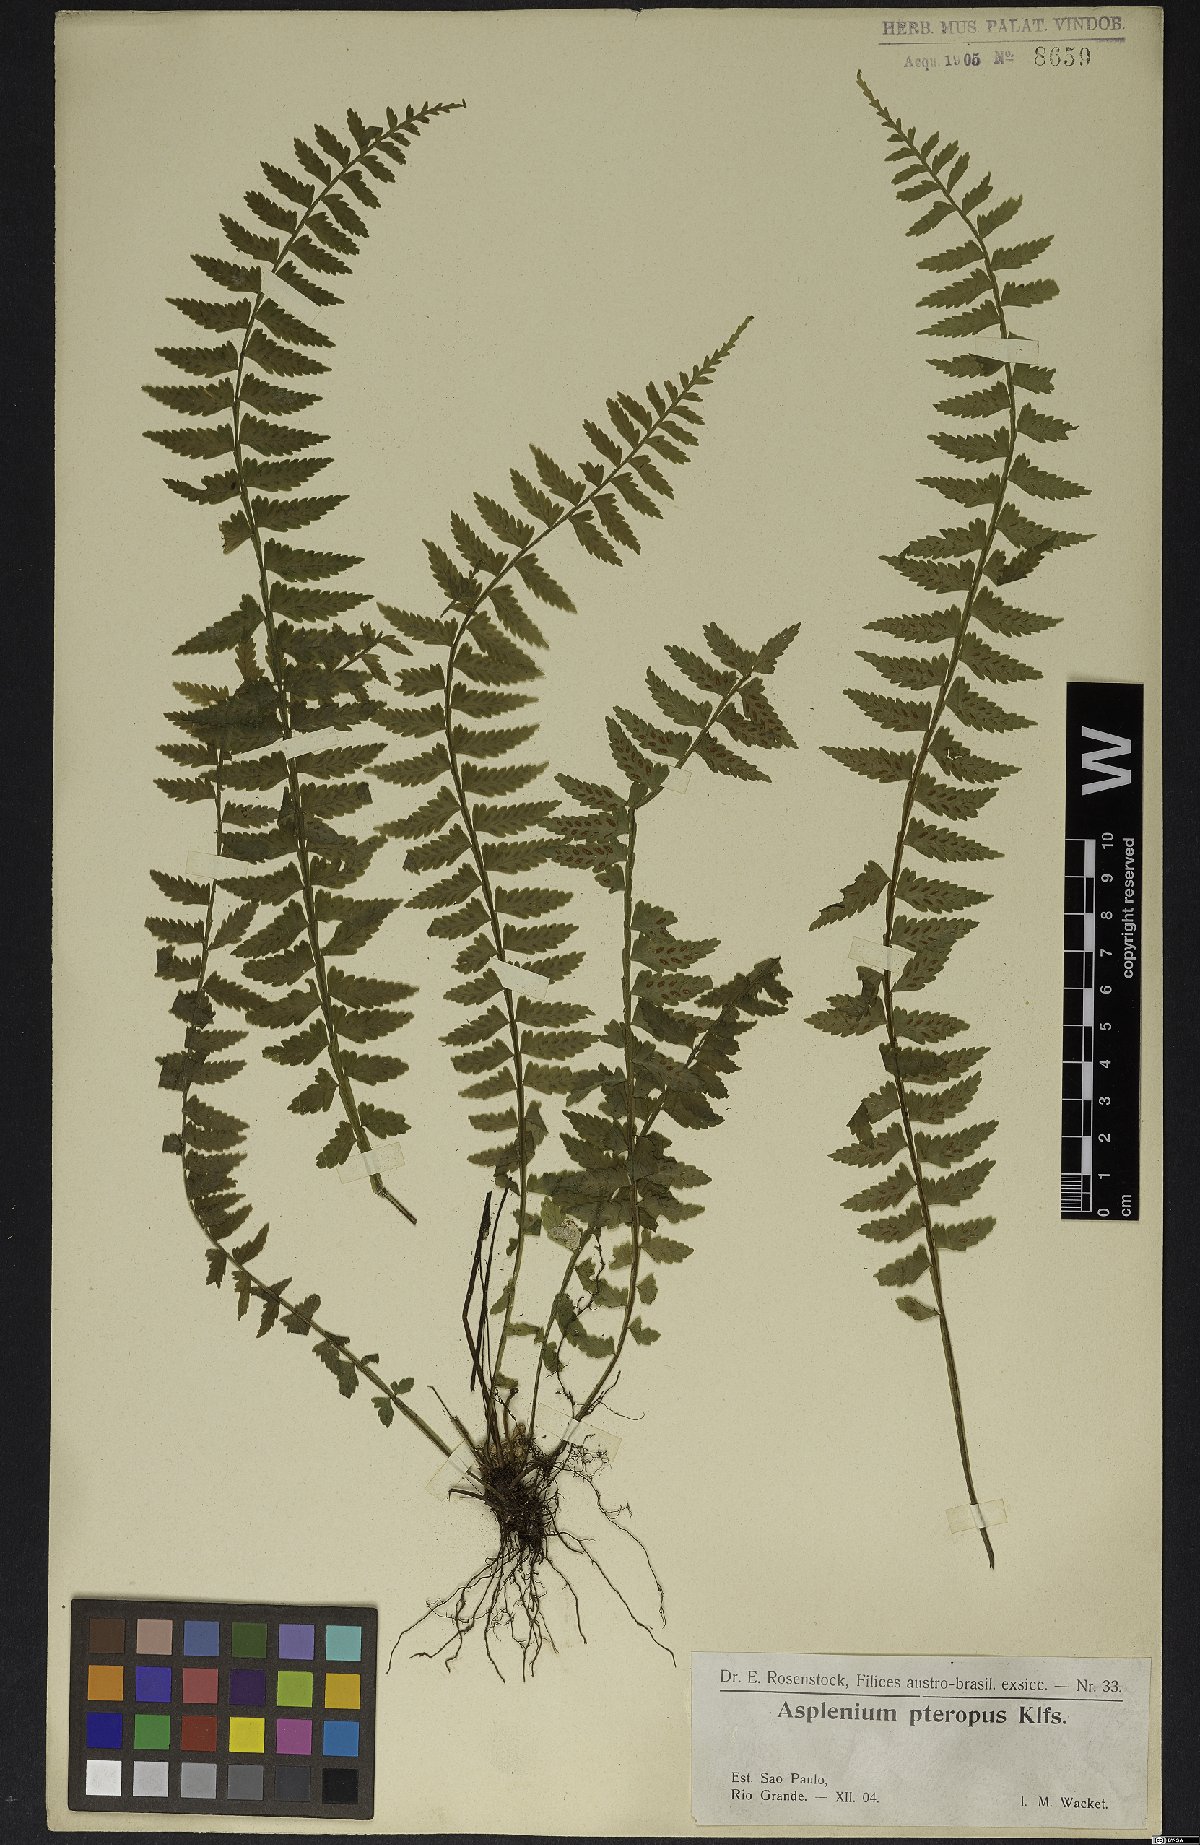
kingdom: Plantae
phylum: Tracheophyta
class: Polypodiopsida
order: Polypodiales
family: Aspleniaceae
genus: Asplenium
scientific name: Asplenium lunulatum
